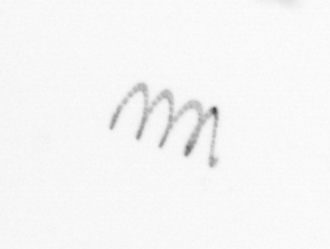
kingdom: Chromista
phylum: Ochrophyta
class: Bacillariophyceae
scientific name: Bacillariophyceae
